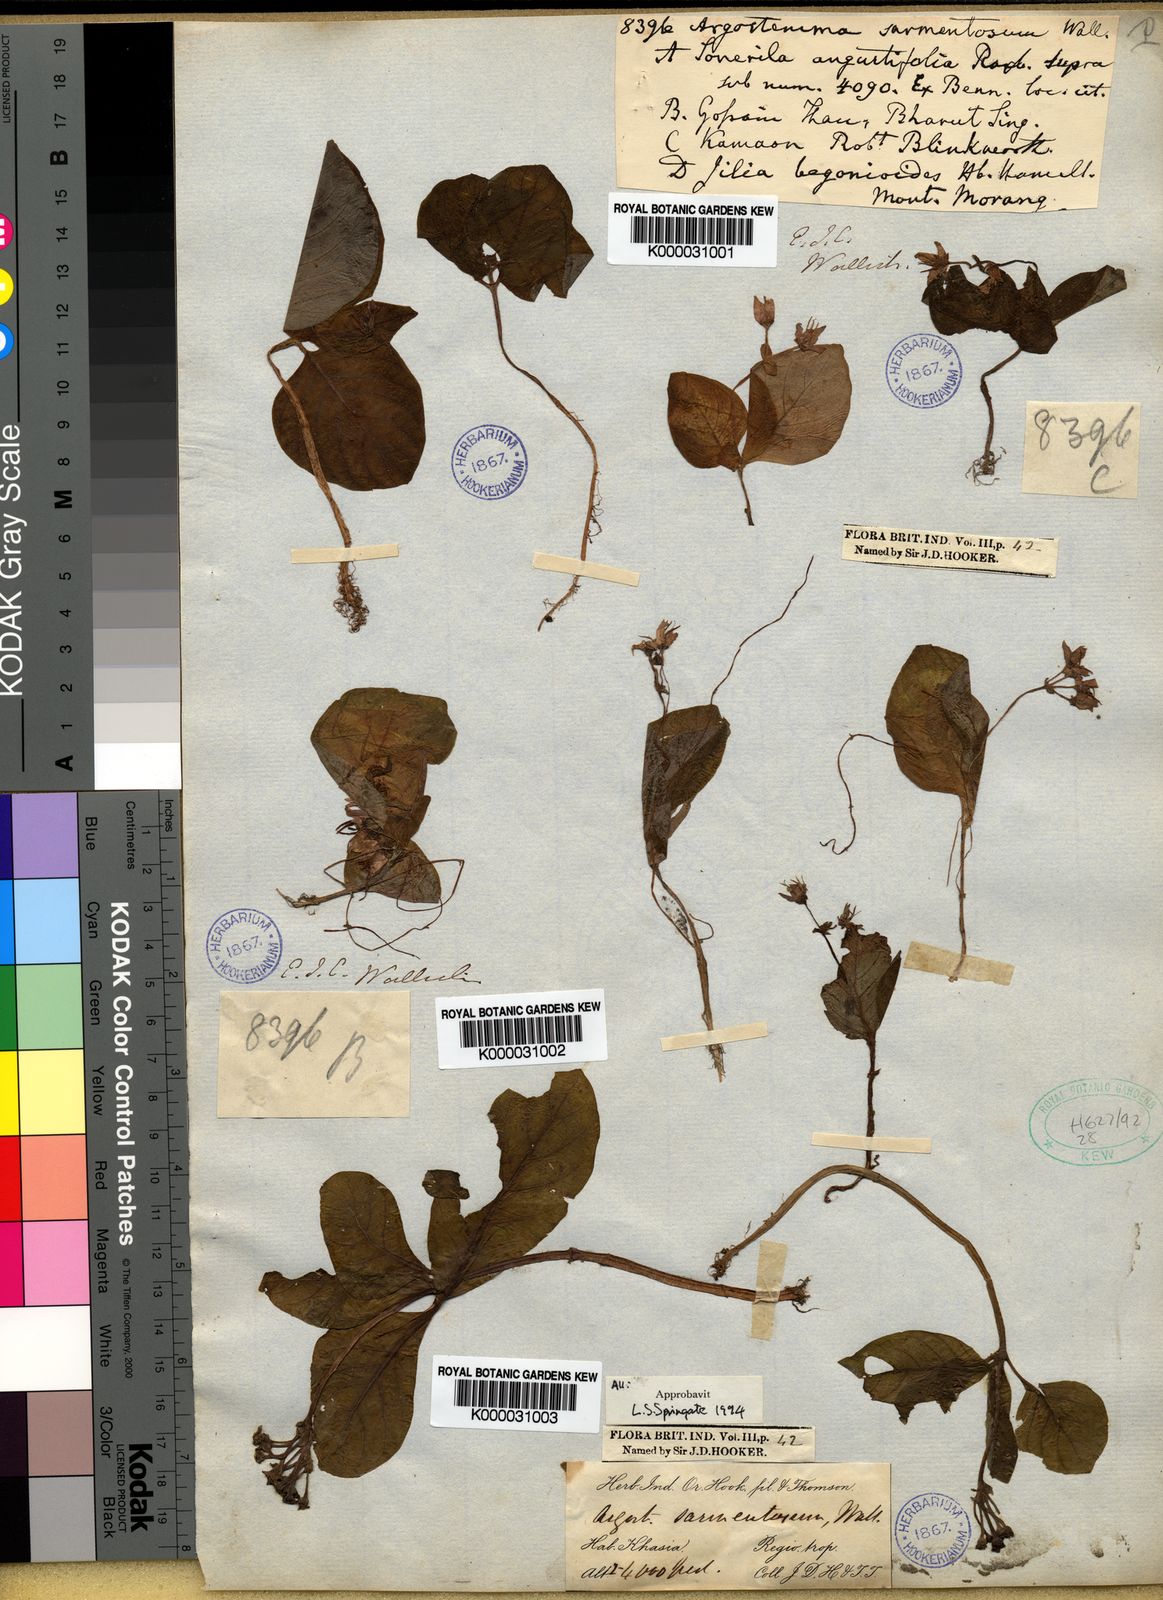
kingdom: Plantae
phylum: Tracheophyta
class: Magnoliopsida
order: Gentianales
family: Rubiaceae
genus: Argostemma
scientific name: Argostemma sarmentosum
